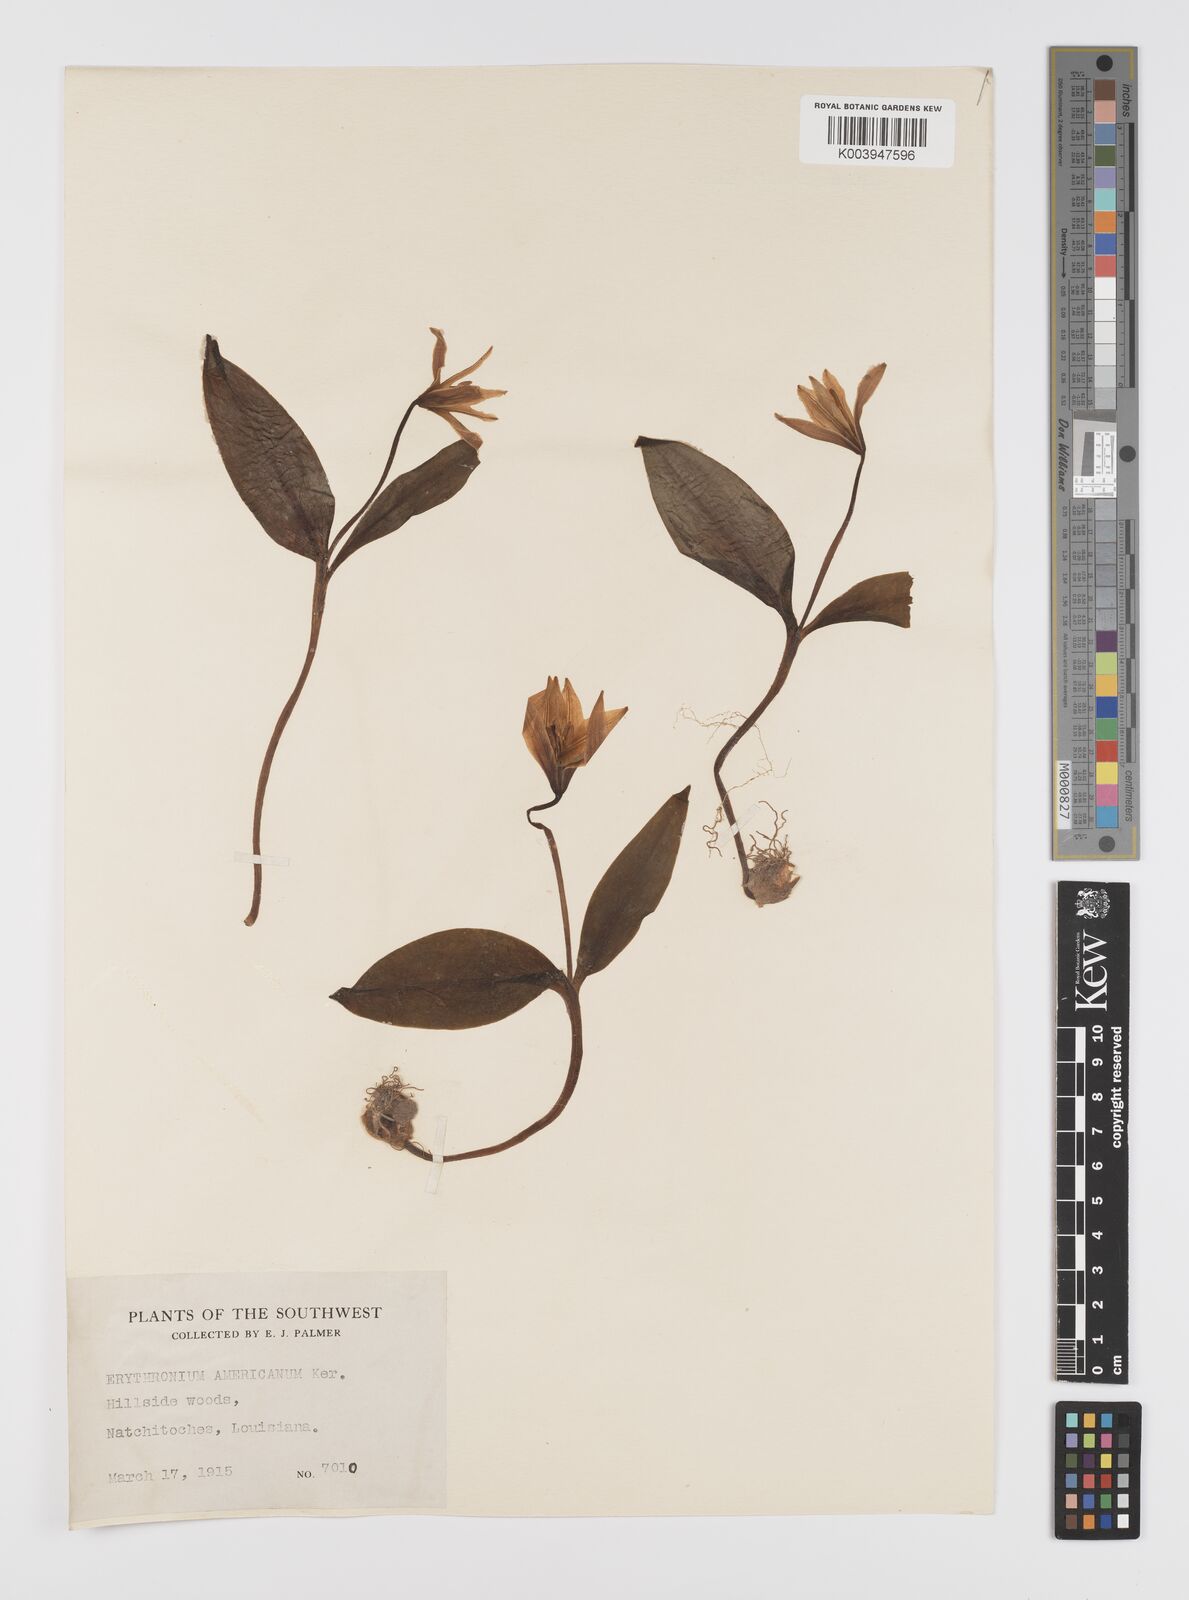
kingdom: Plantae
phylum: Tracheophyta
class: Liliopsida
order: Liliales
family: Liliaceae
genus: Erythronium
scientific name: Erythronium grandiflorum
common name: Avalanche-lily
